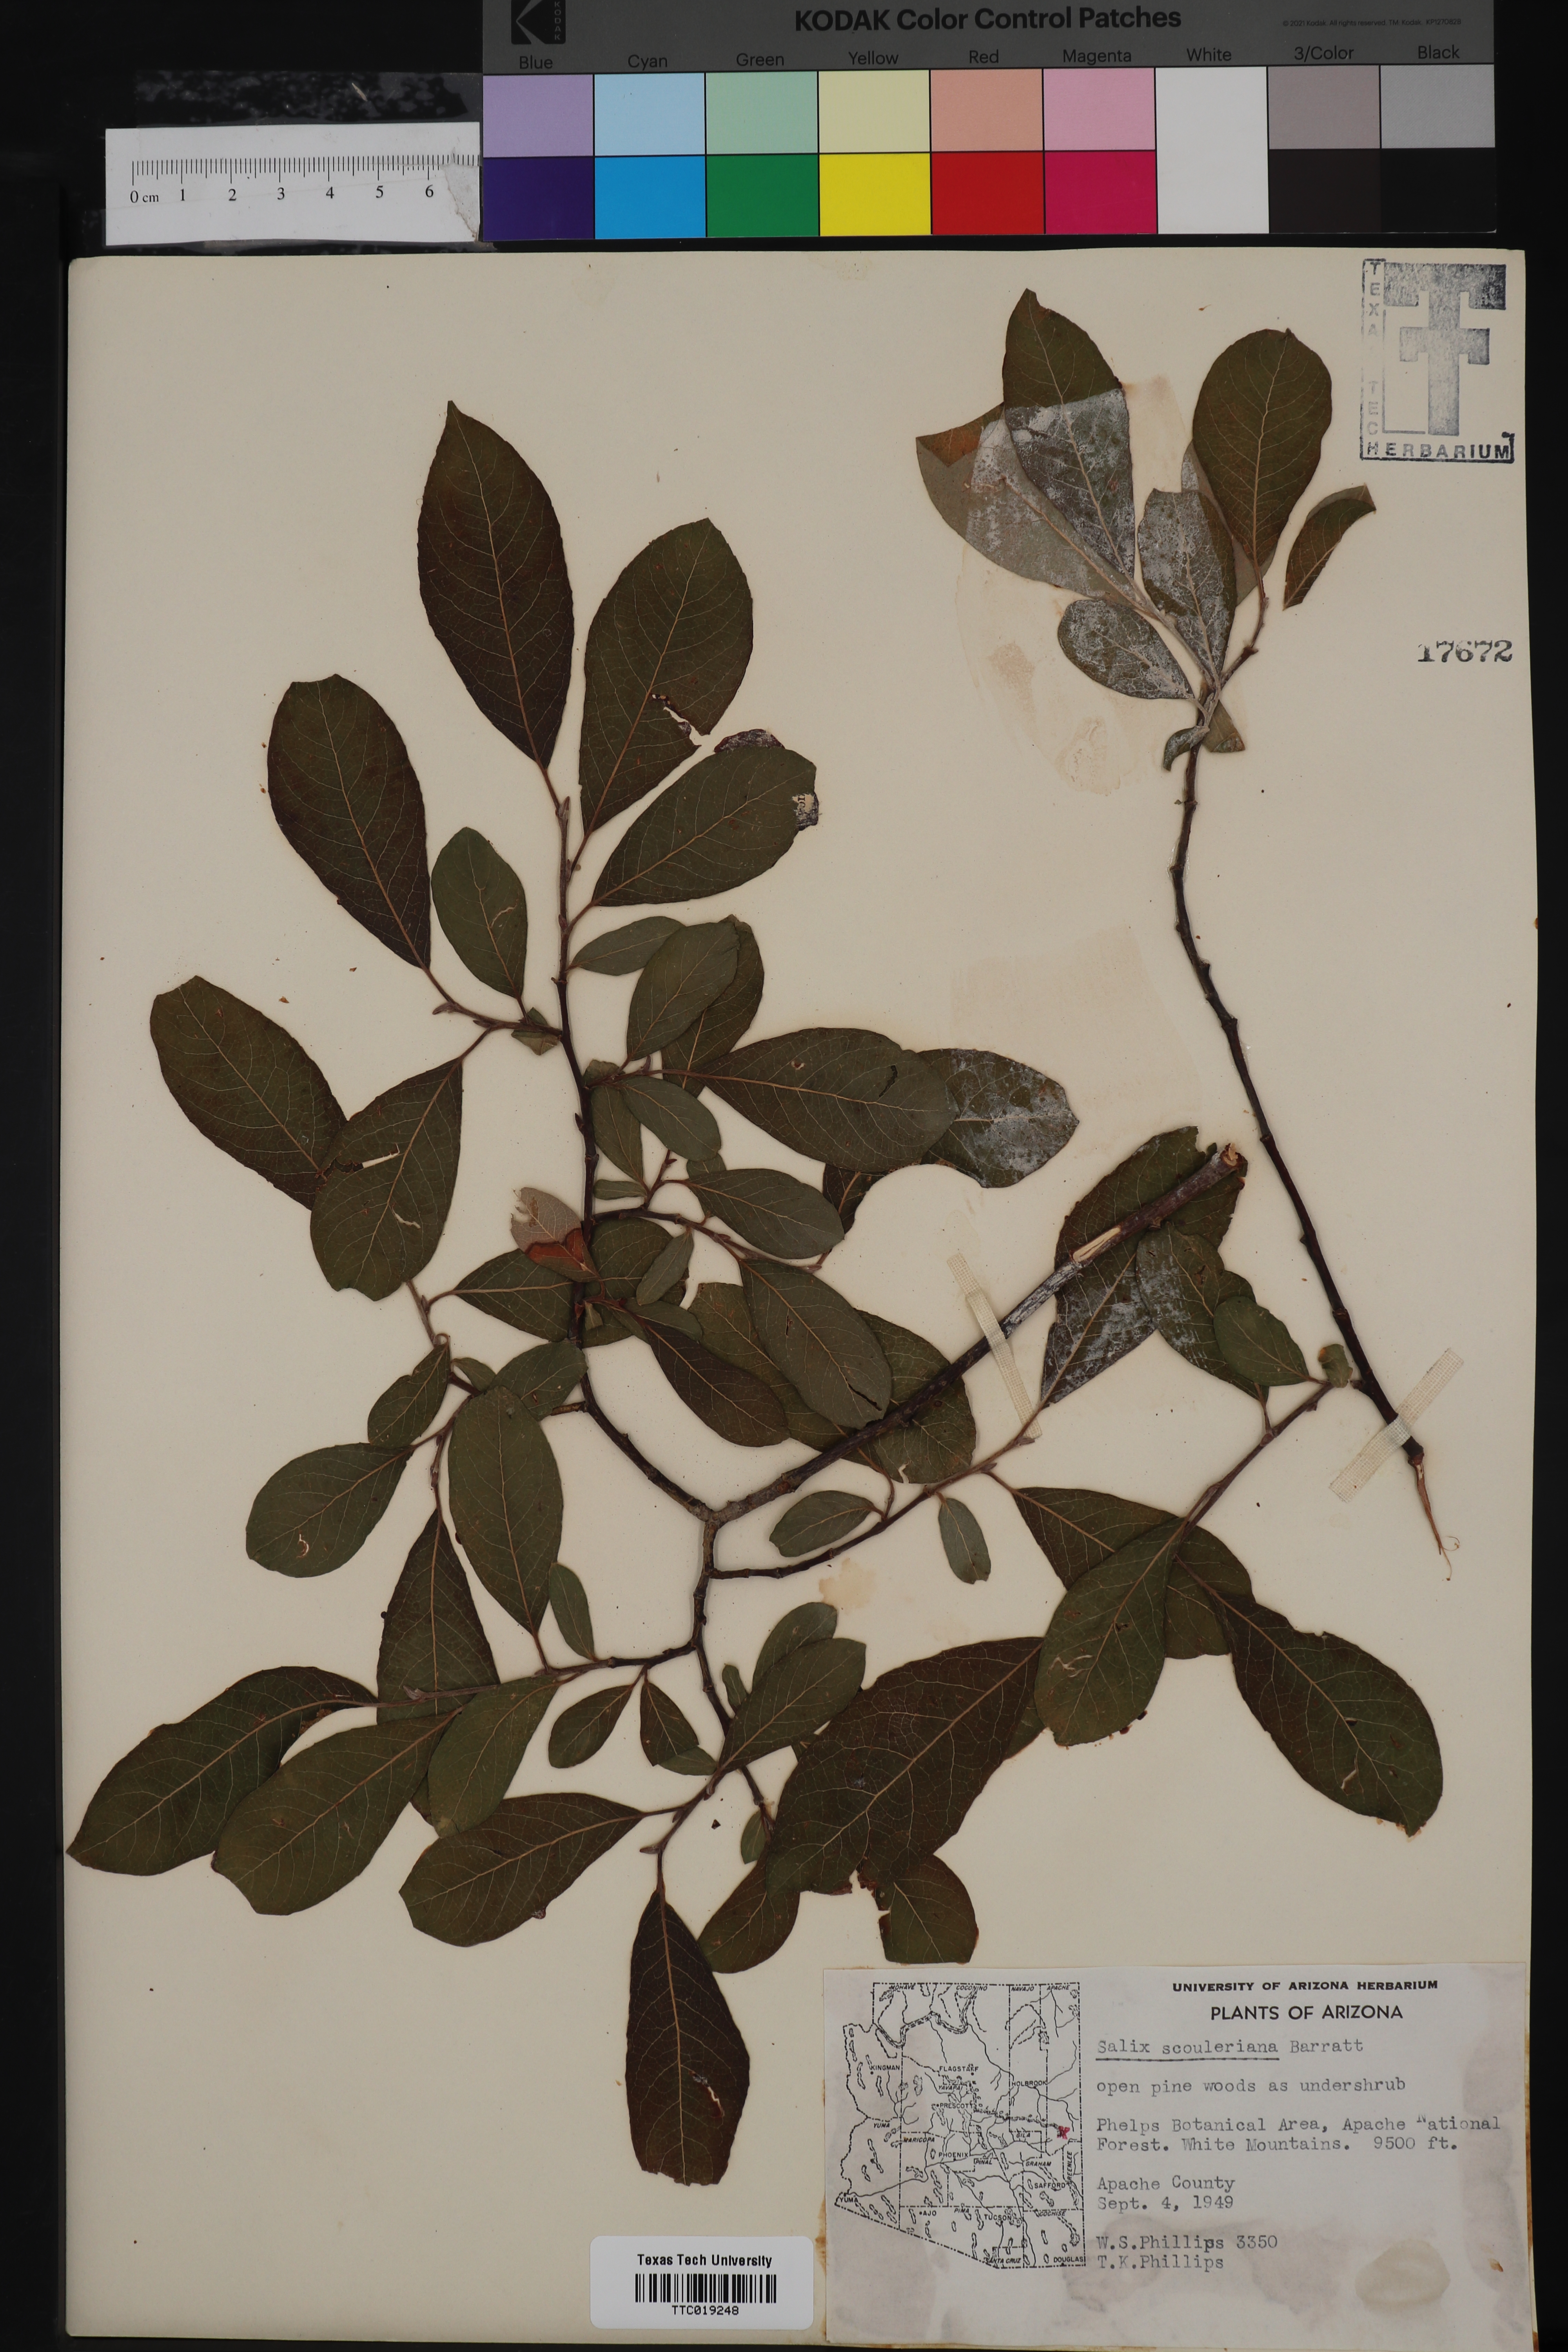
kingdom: Plantae
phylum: Tracheophyta
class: Magnoliopsida
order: Malpighiales
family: Salicaceae
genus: Salix
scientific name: Salix scouleriana
